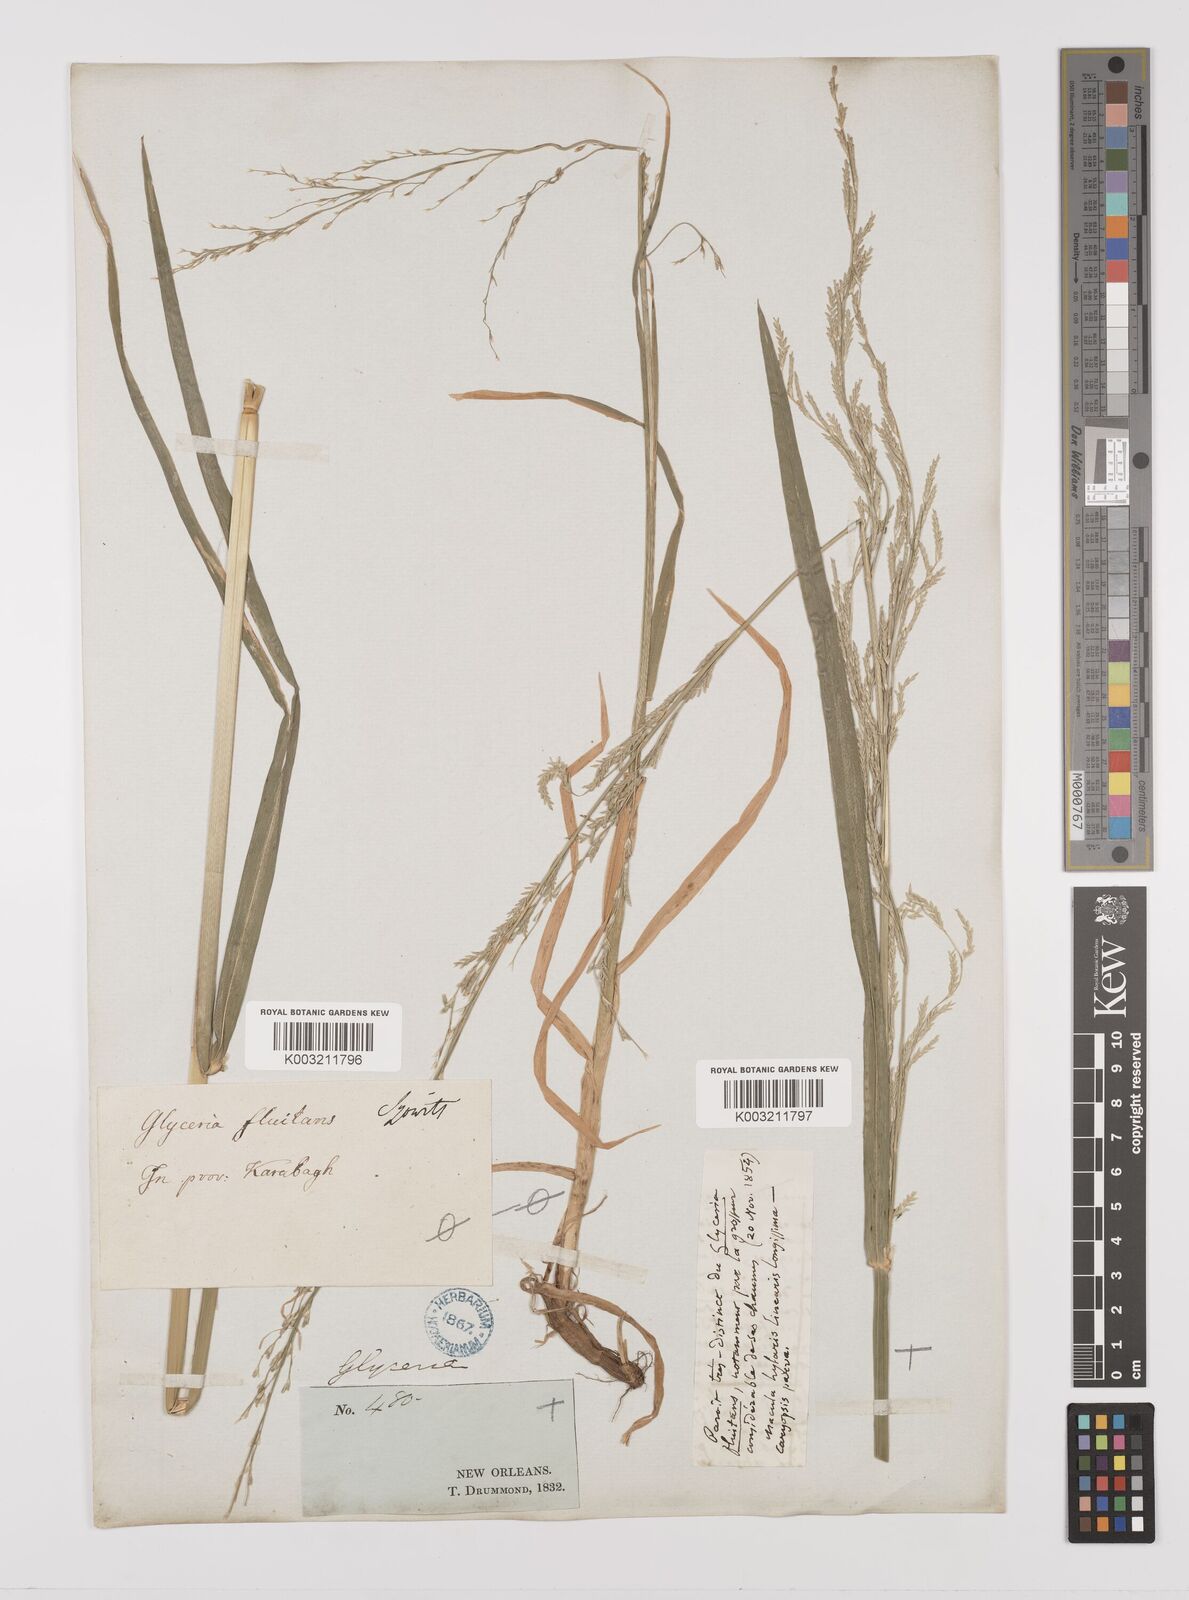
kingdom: Plantae
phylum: Tracheophyta
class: Liliopsida
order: Poales
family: Poaceae
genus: Glyceria
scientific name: Glyceria arkansana
